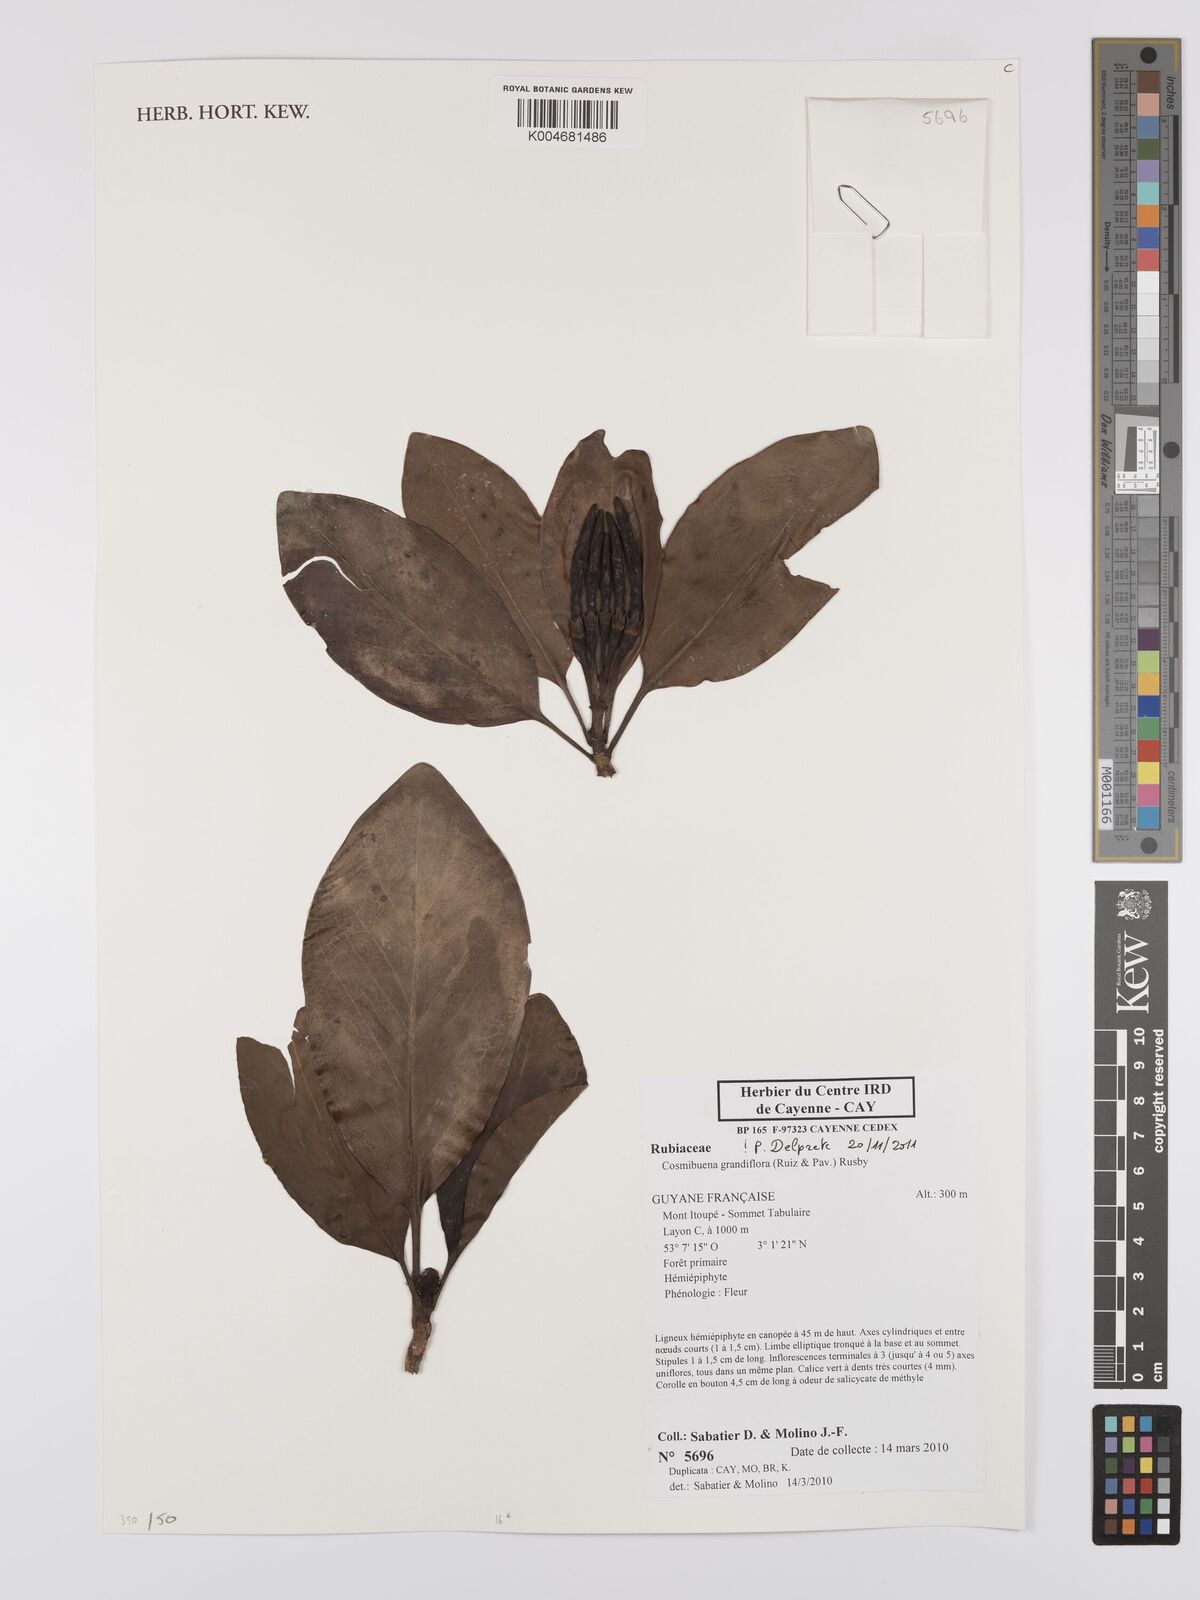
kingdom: Plantae
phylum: Tracheophyta
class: Magnoliopsida
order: Gentianales
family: Rubiaceae
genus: Cosmibuena
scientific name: Cosmibuena grandiflora
